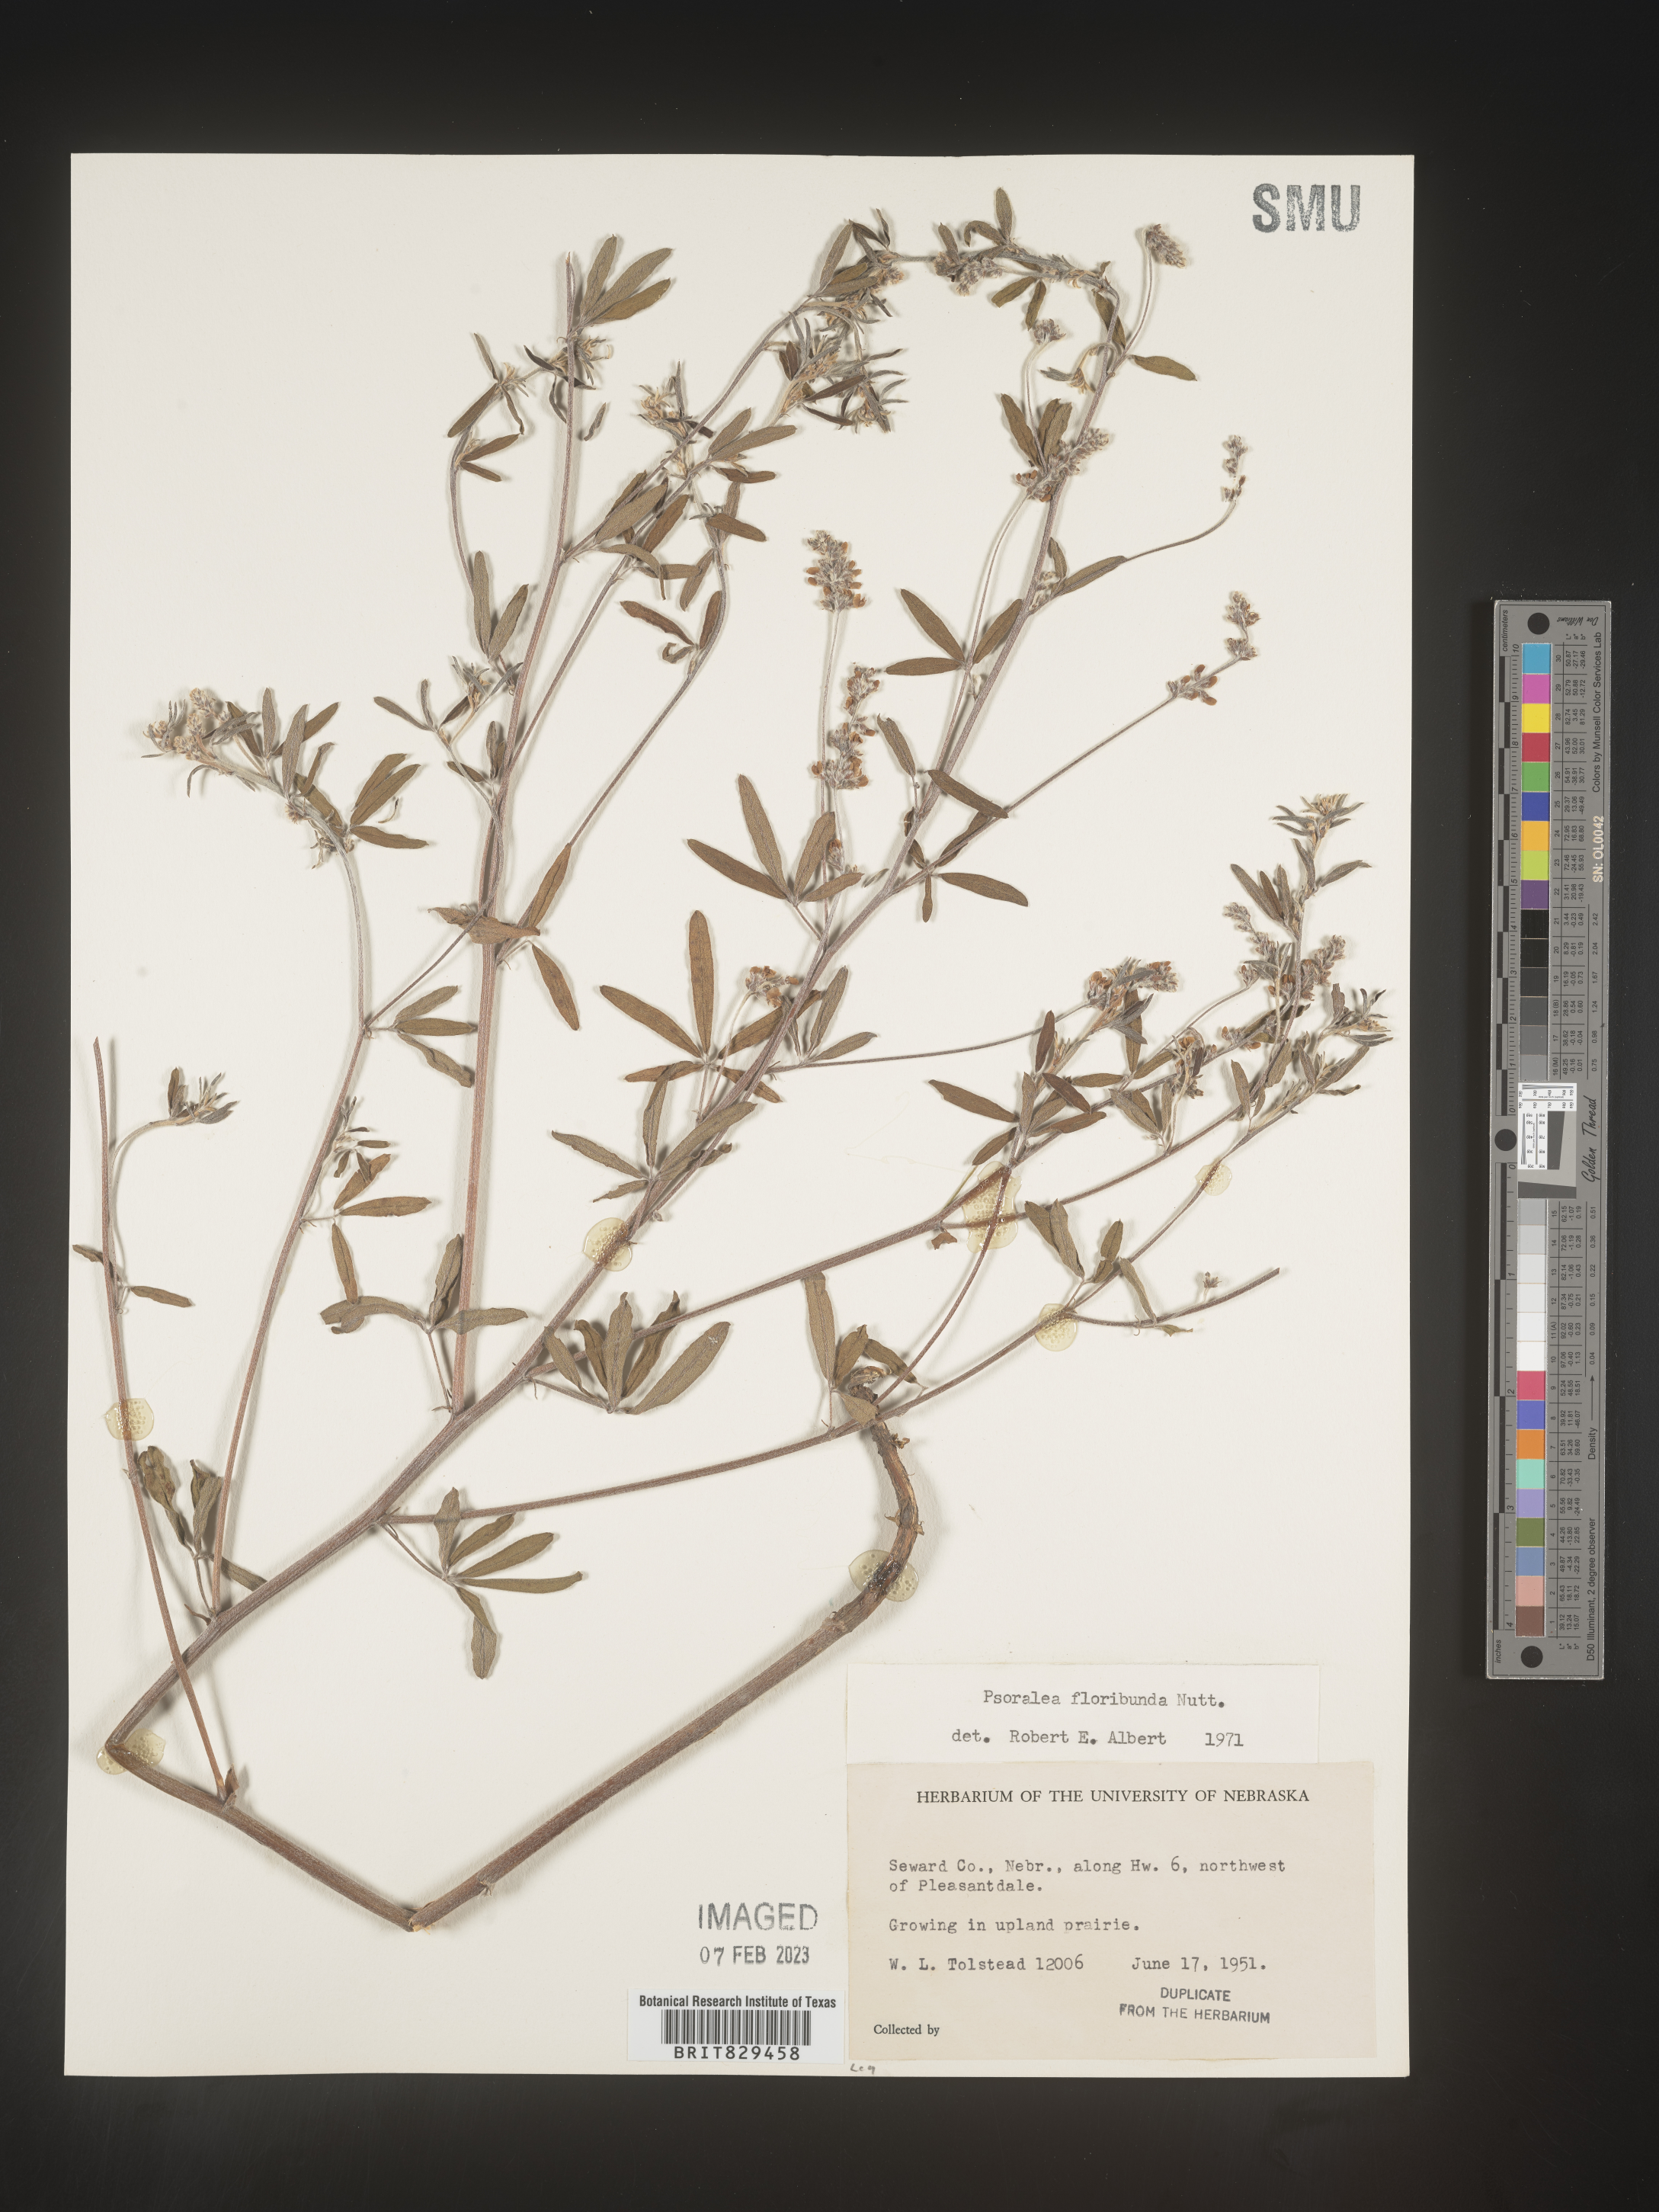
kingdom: Plantae
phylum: Tracheophyta
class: Magnoliopsida
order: Fabales
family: Fabaceae
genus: Psoralea
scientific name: Psoralea
